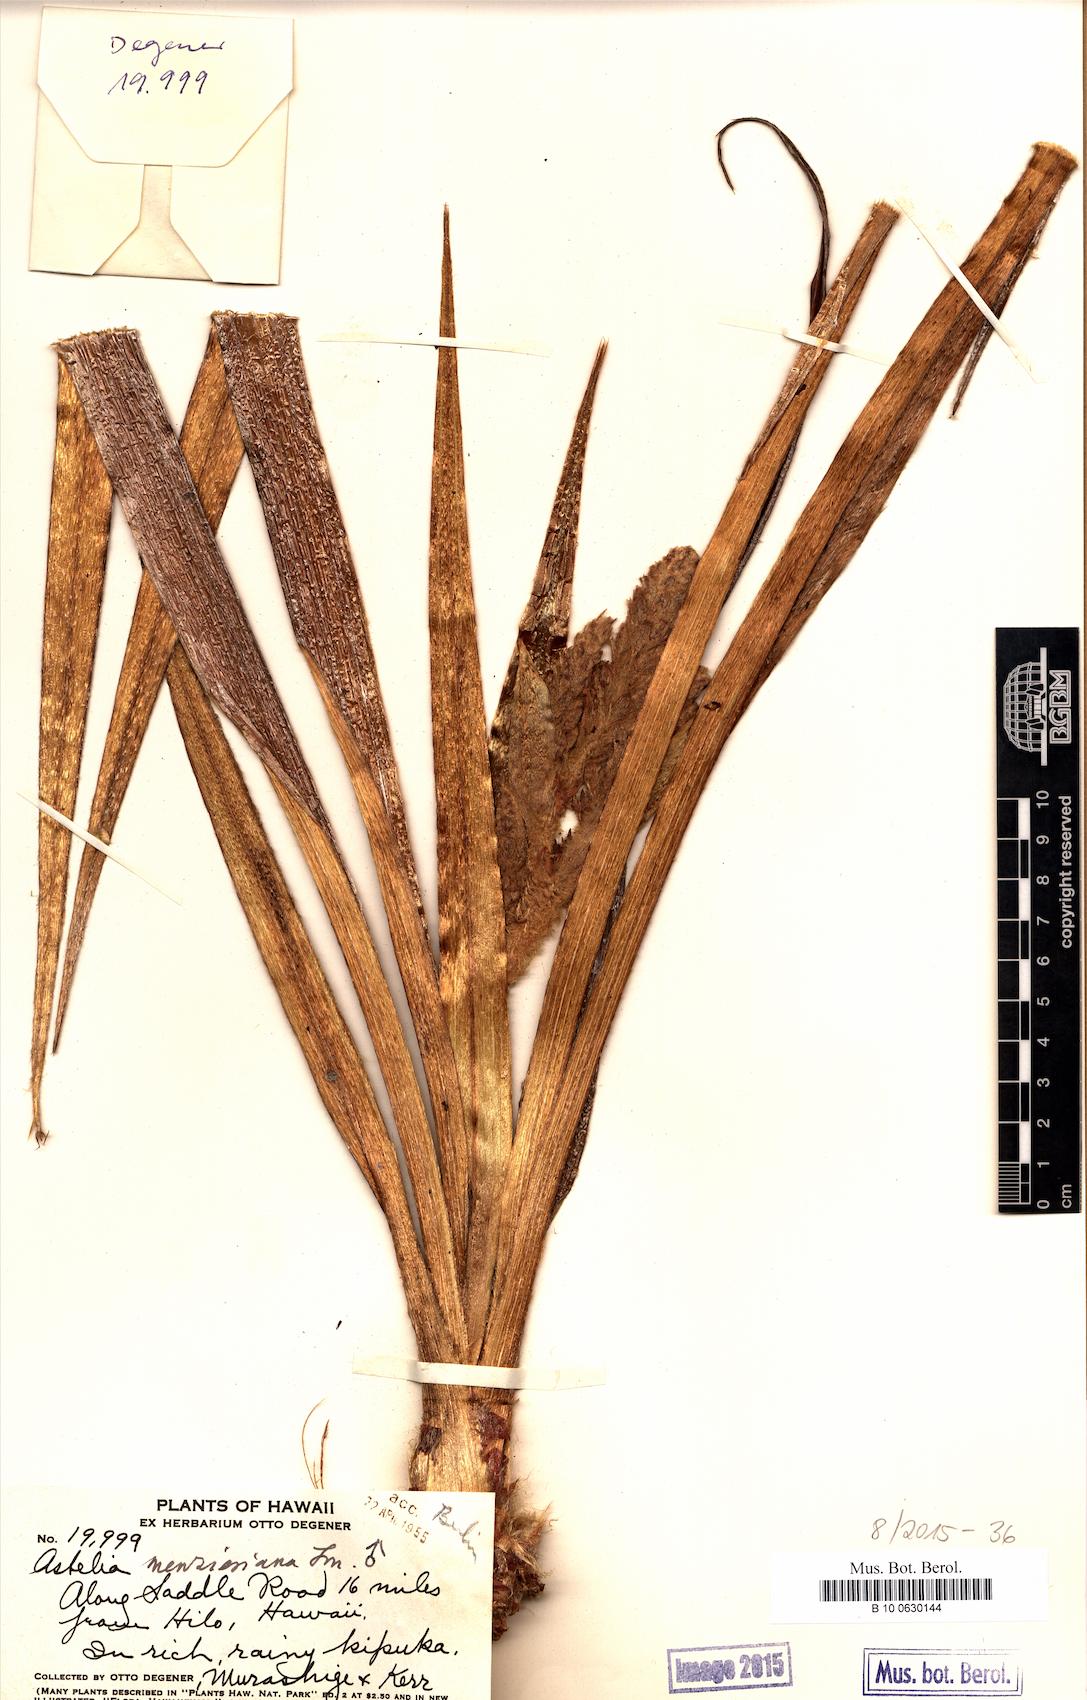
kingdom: Plantae
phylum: Tracheophyta
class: Liliopsida
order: Asparagales
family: Asteliaceae
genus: Astelia
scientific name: Astelia menziesiana
